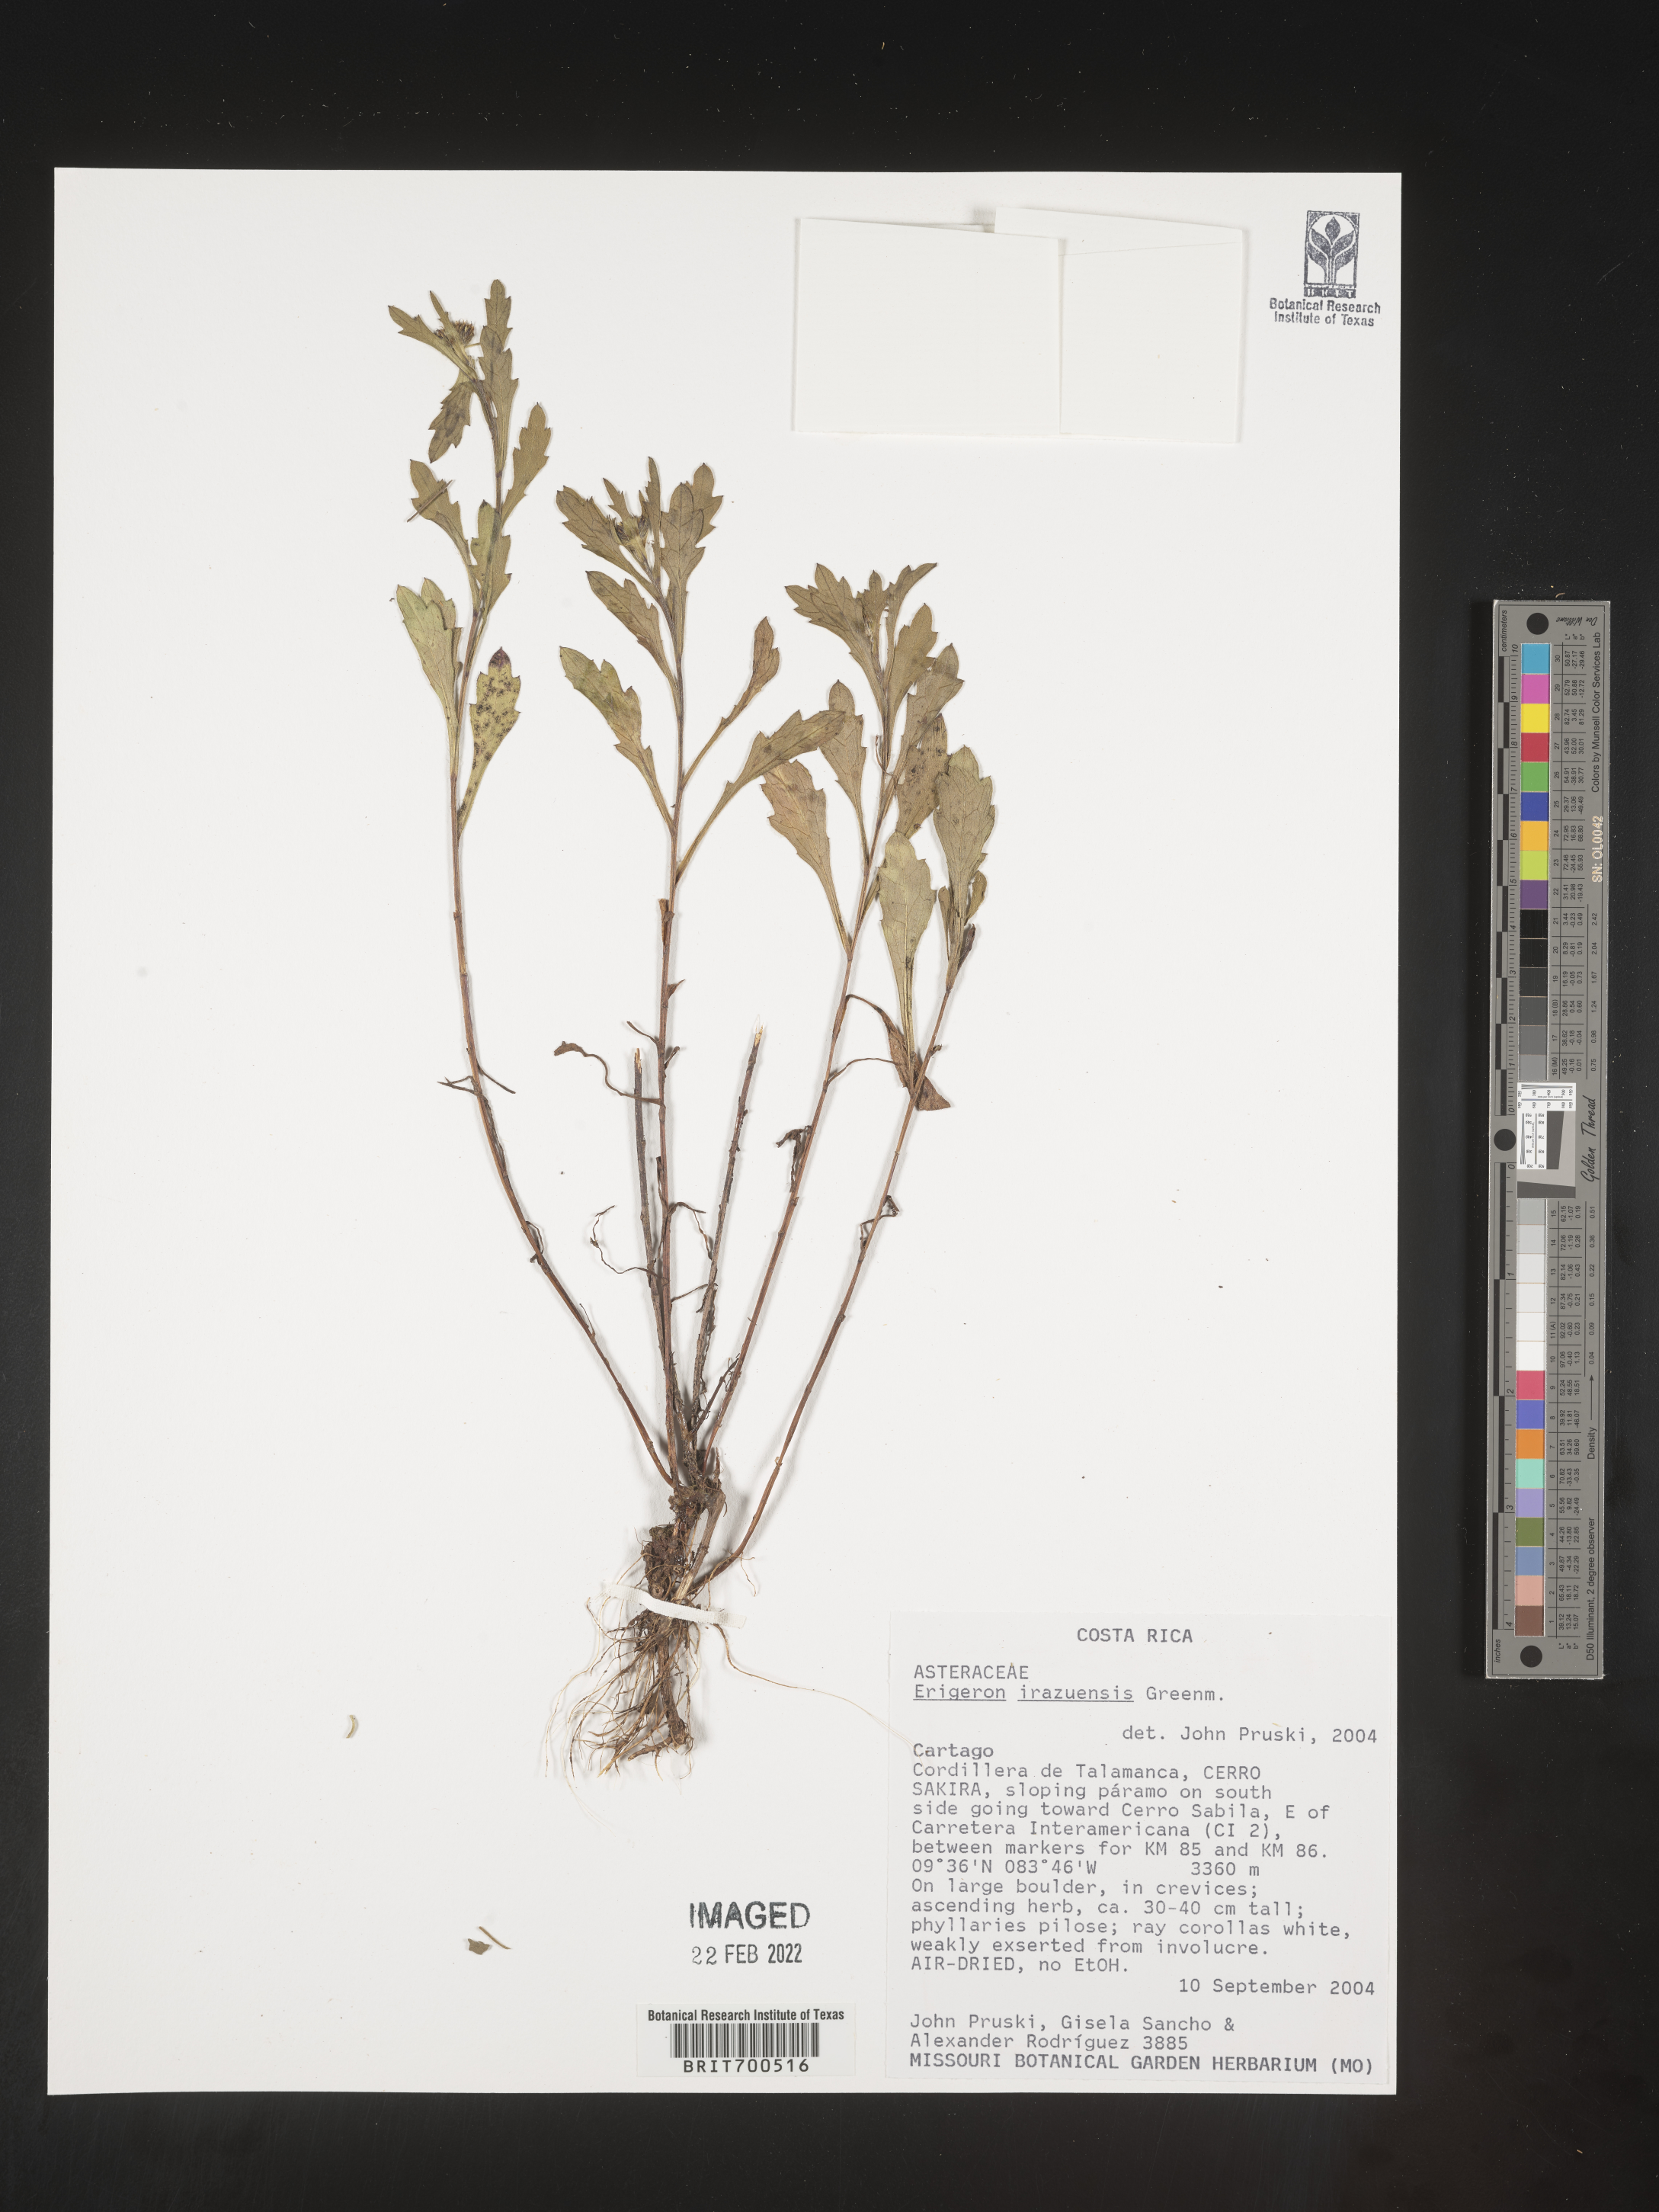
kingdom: Plantae
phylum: Tracheophyta
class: Magnoliopsida
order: Asterales
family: Asteraceae
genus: Erigeron
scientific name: Erigeron
